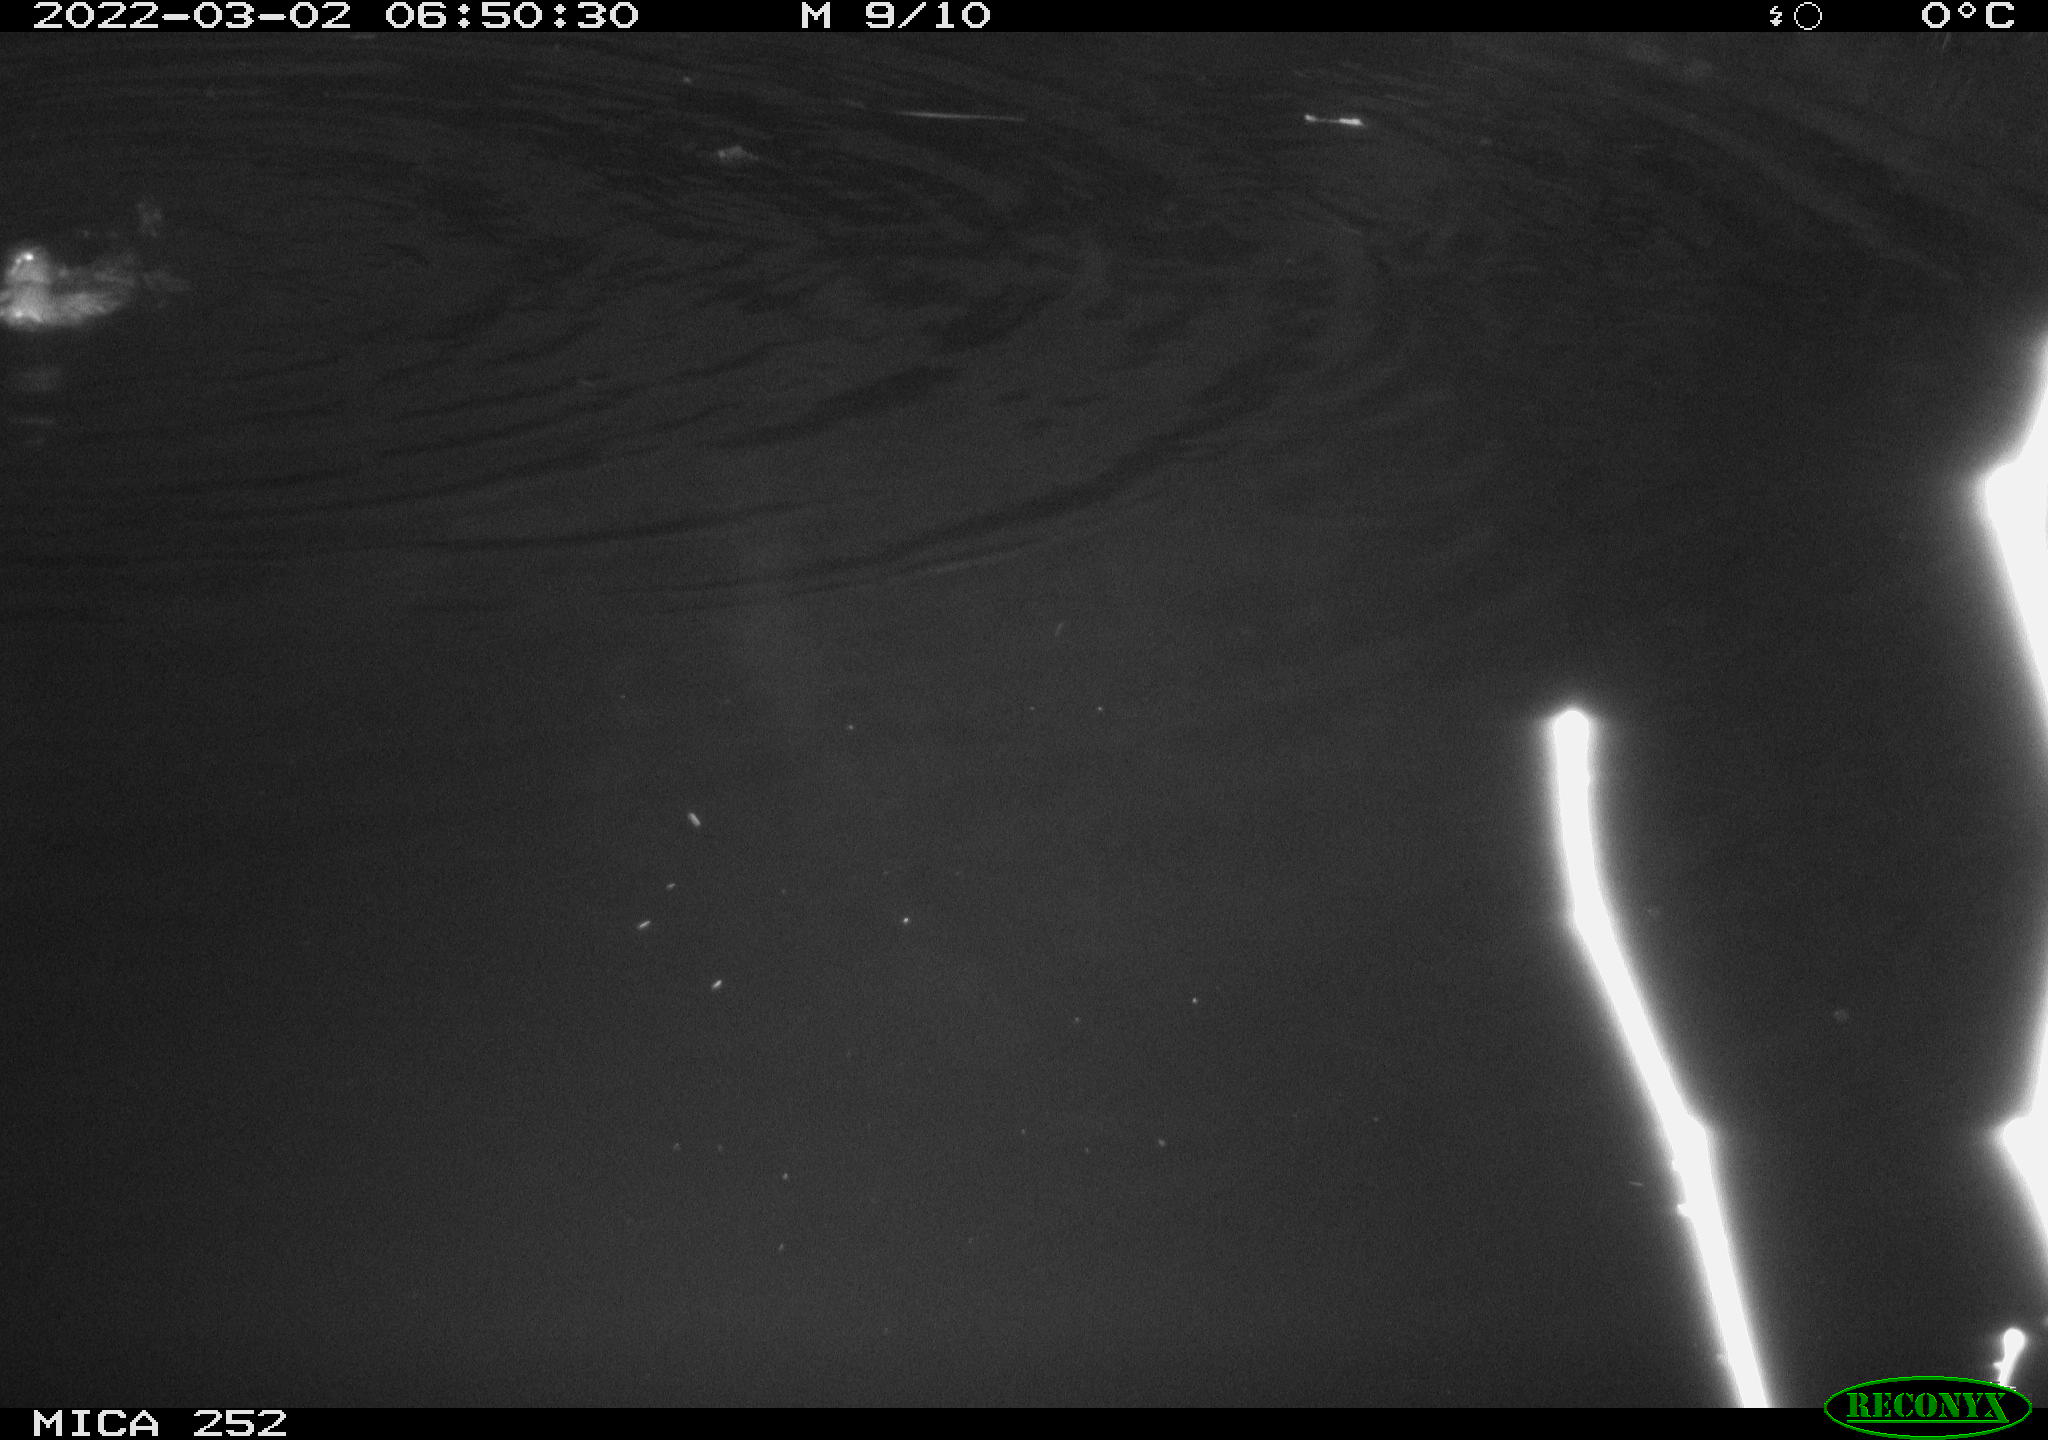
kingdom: Animalia
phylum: Chordata
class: Aves
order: Anseriformes
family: Anatidae
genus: Anas
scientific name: Anas platyrhynchos
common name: Mallard
